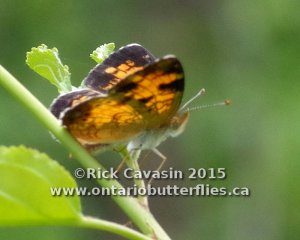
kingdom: Animalia
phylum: Arthropoda
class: Insecta
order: Lepidoptera
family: Nymphalidae
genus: Phyciodes
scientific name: Phyciodes tharos
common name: Northern Crescent
